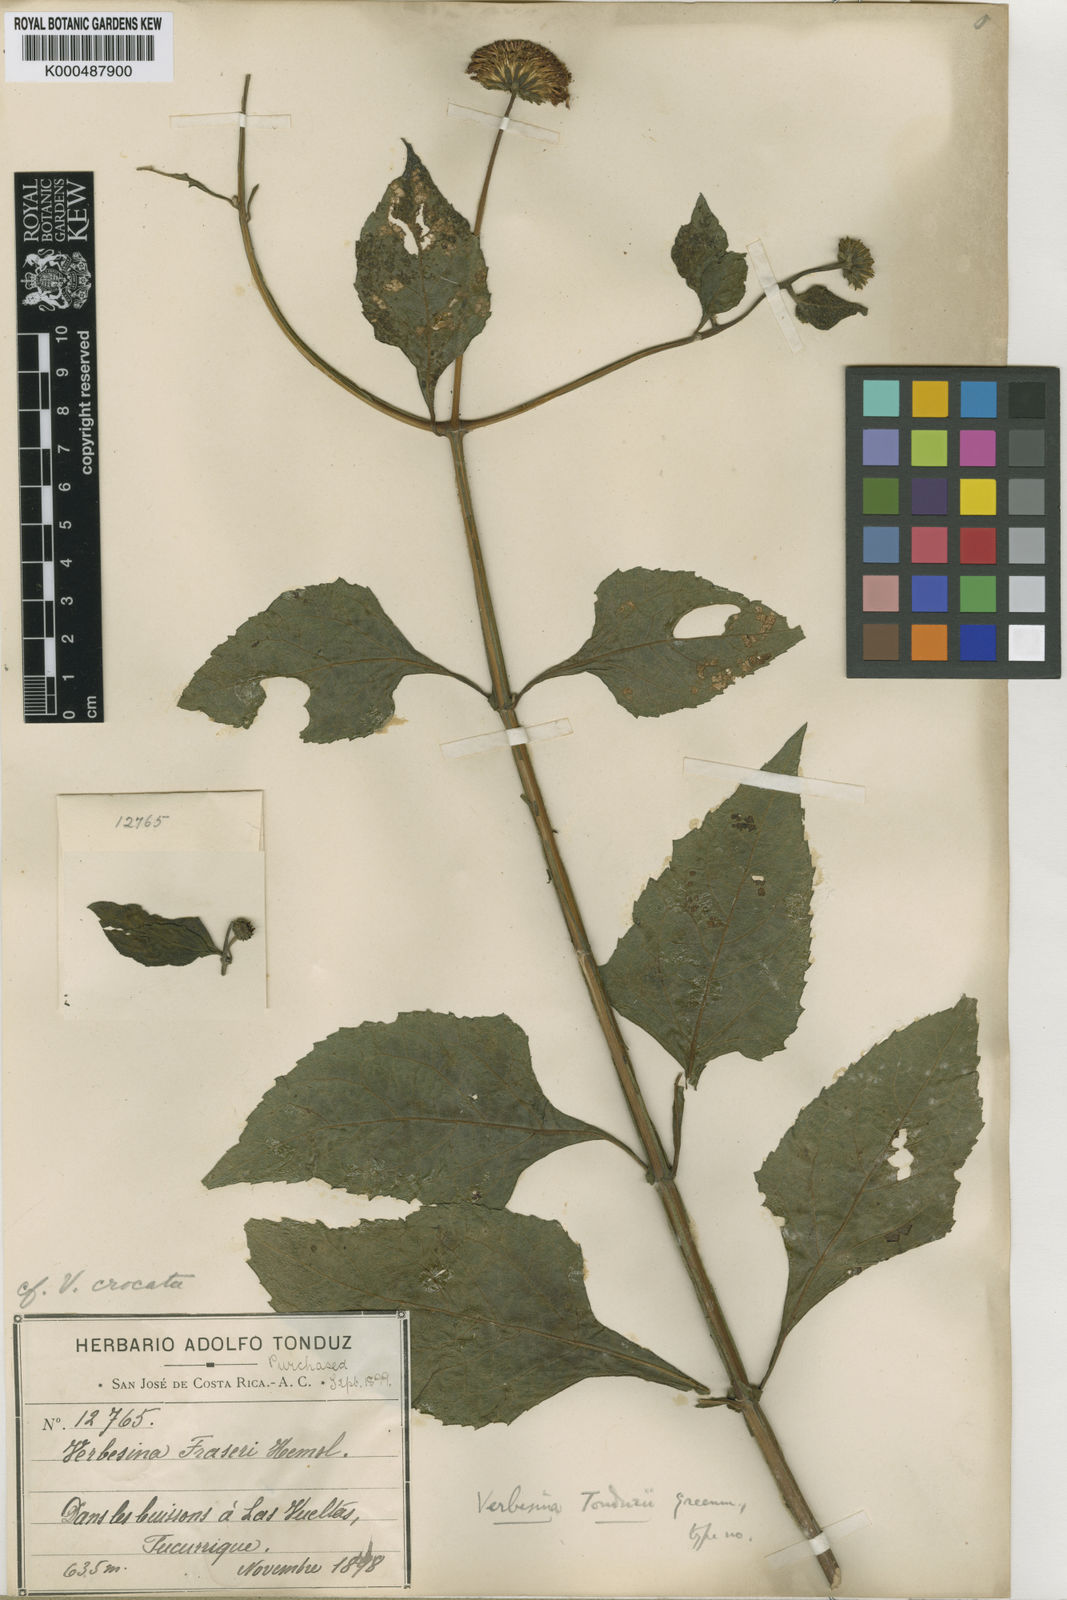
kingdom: Plantae
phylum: Tracheophyta
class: Magnoliopsida
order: Asterales
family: Asteraceae
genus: Verbesina
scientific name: Verbesina ovatifolia
